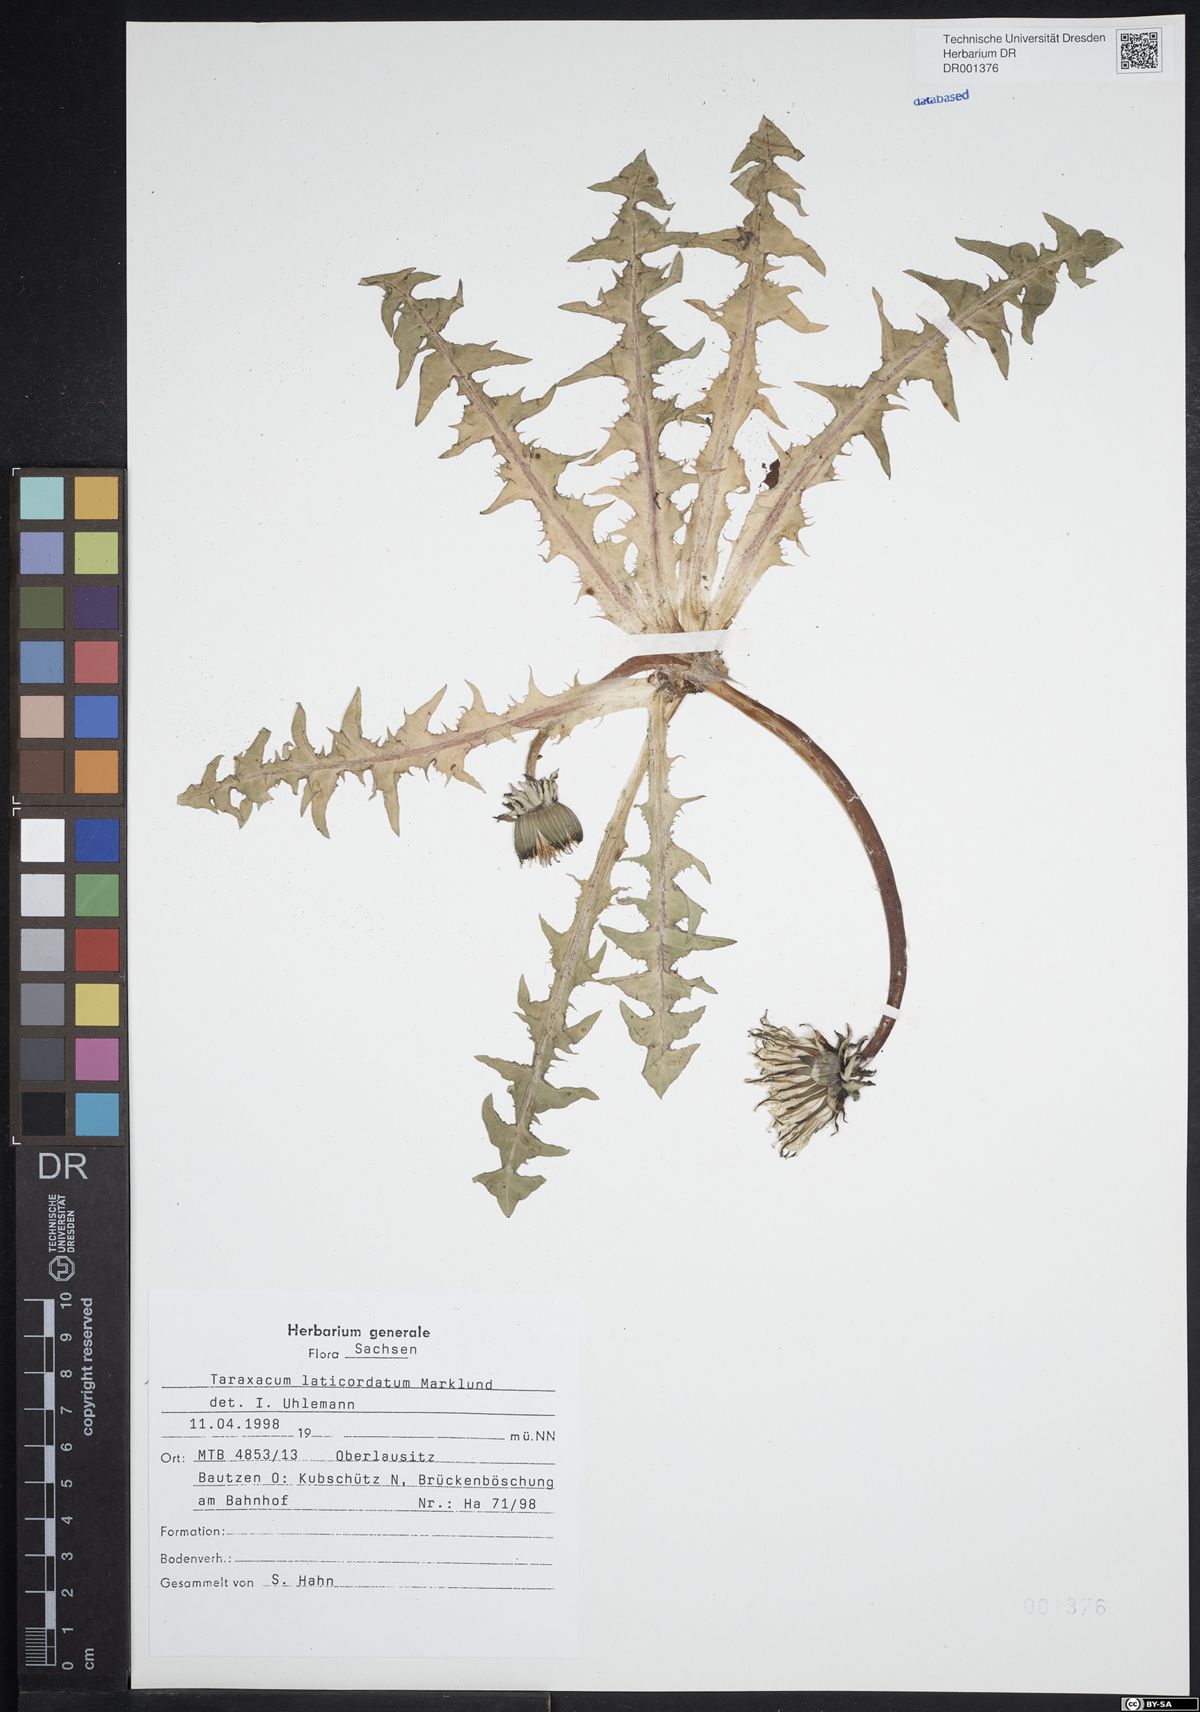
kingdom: Plantae
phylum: Tracheophyta
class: Magnoliopsida
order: Asterales
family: Asteraceae
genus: Taraxacum
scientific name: Taraxacum laticordatum
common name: Decumbent dandelion
